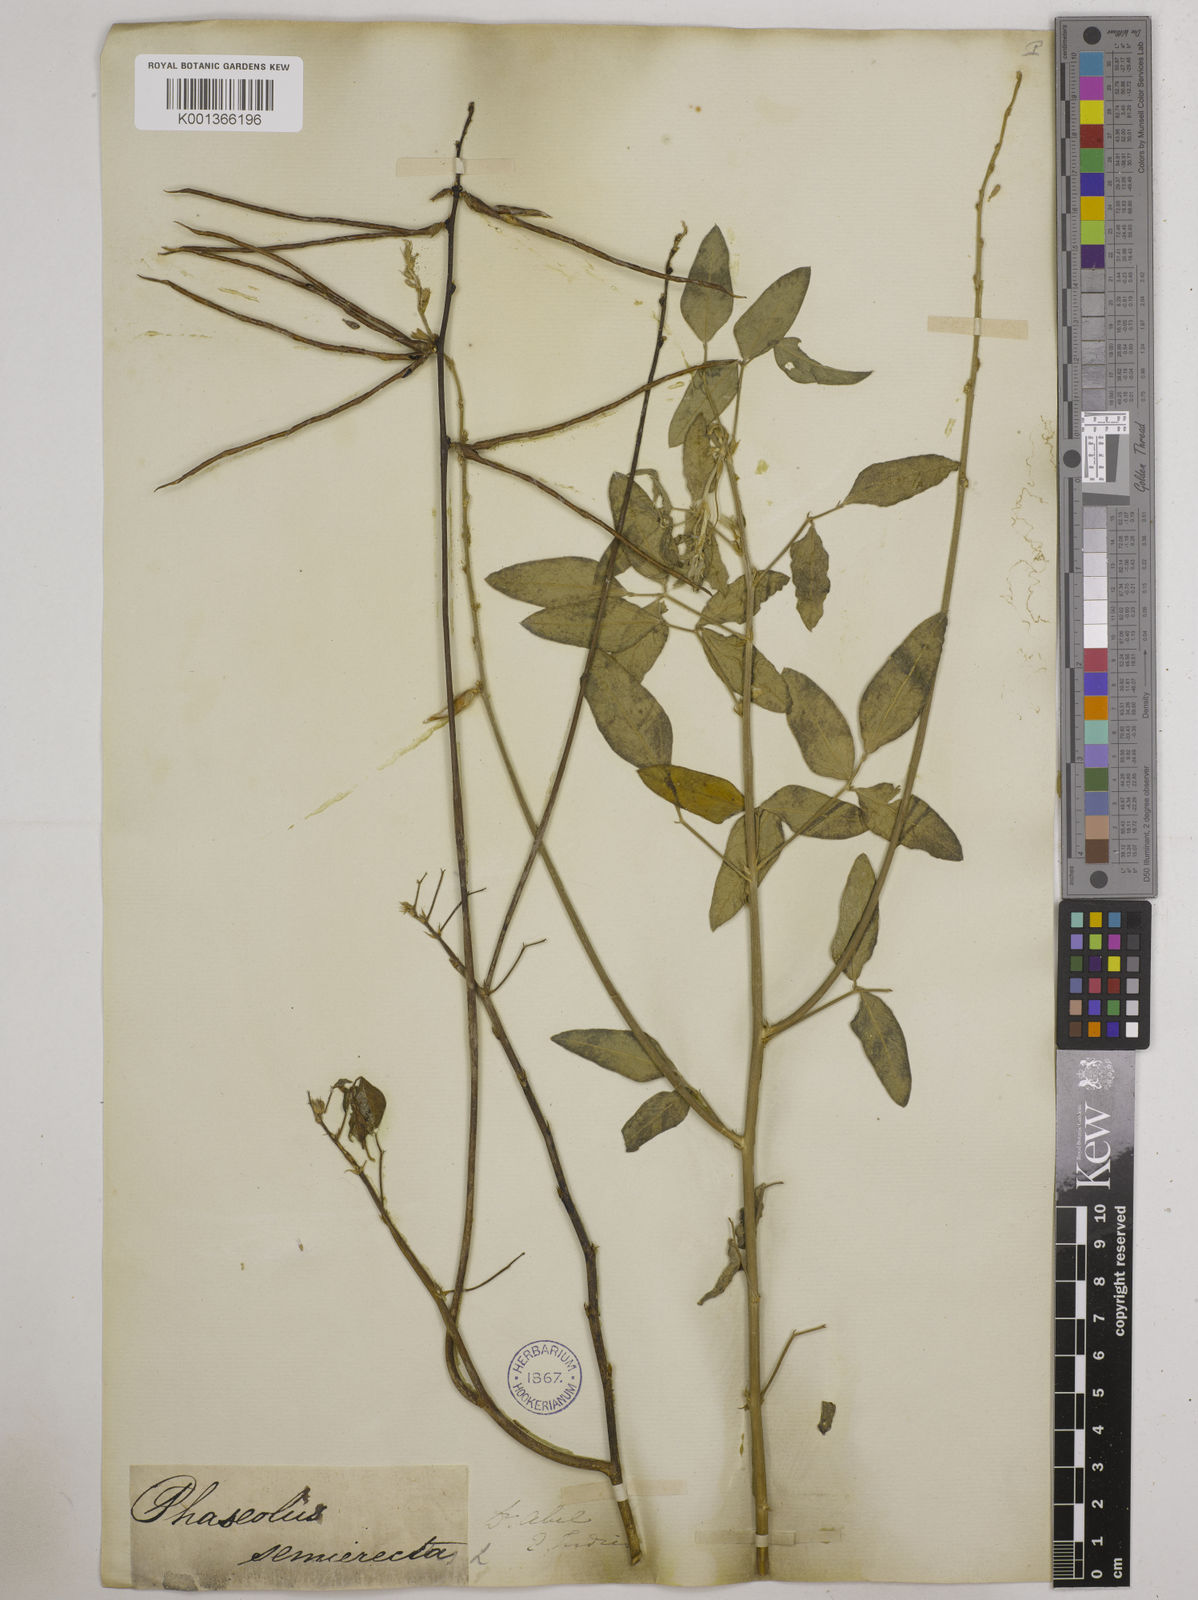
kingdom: Plantae
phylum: Tracheophyta
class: Magnoliopsida
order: Fabales
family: Fabaceae
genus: Macroptilium
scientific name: Macroptilium lathyroides
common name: Wild bushbean
